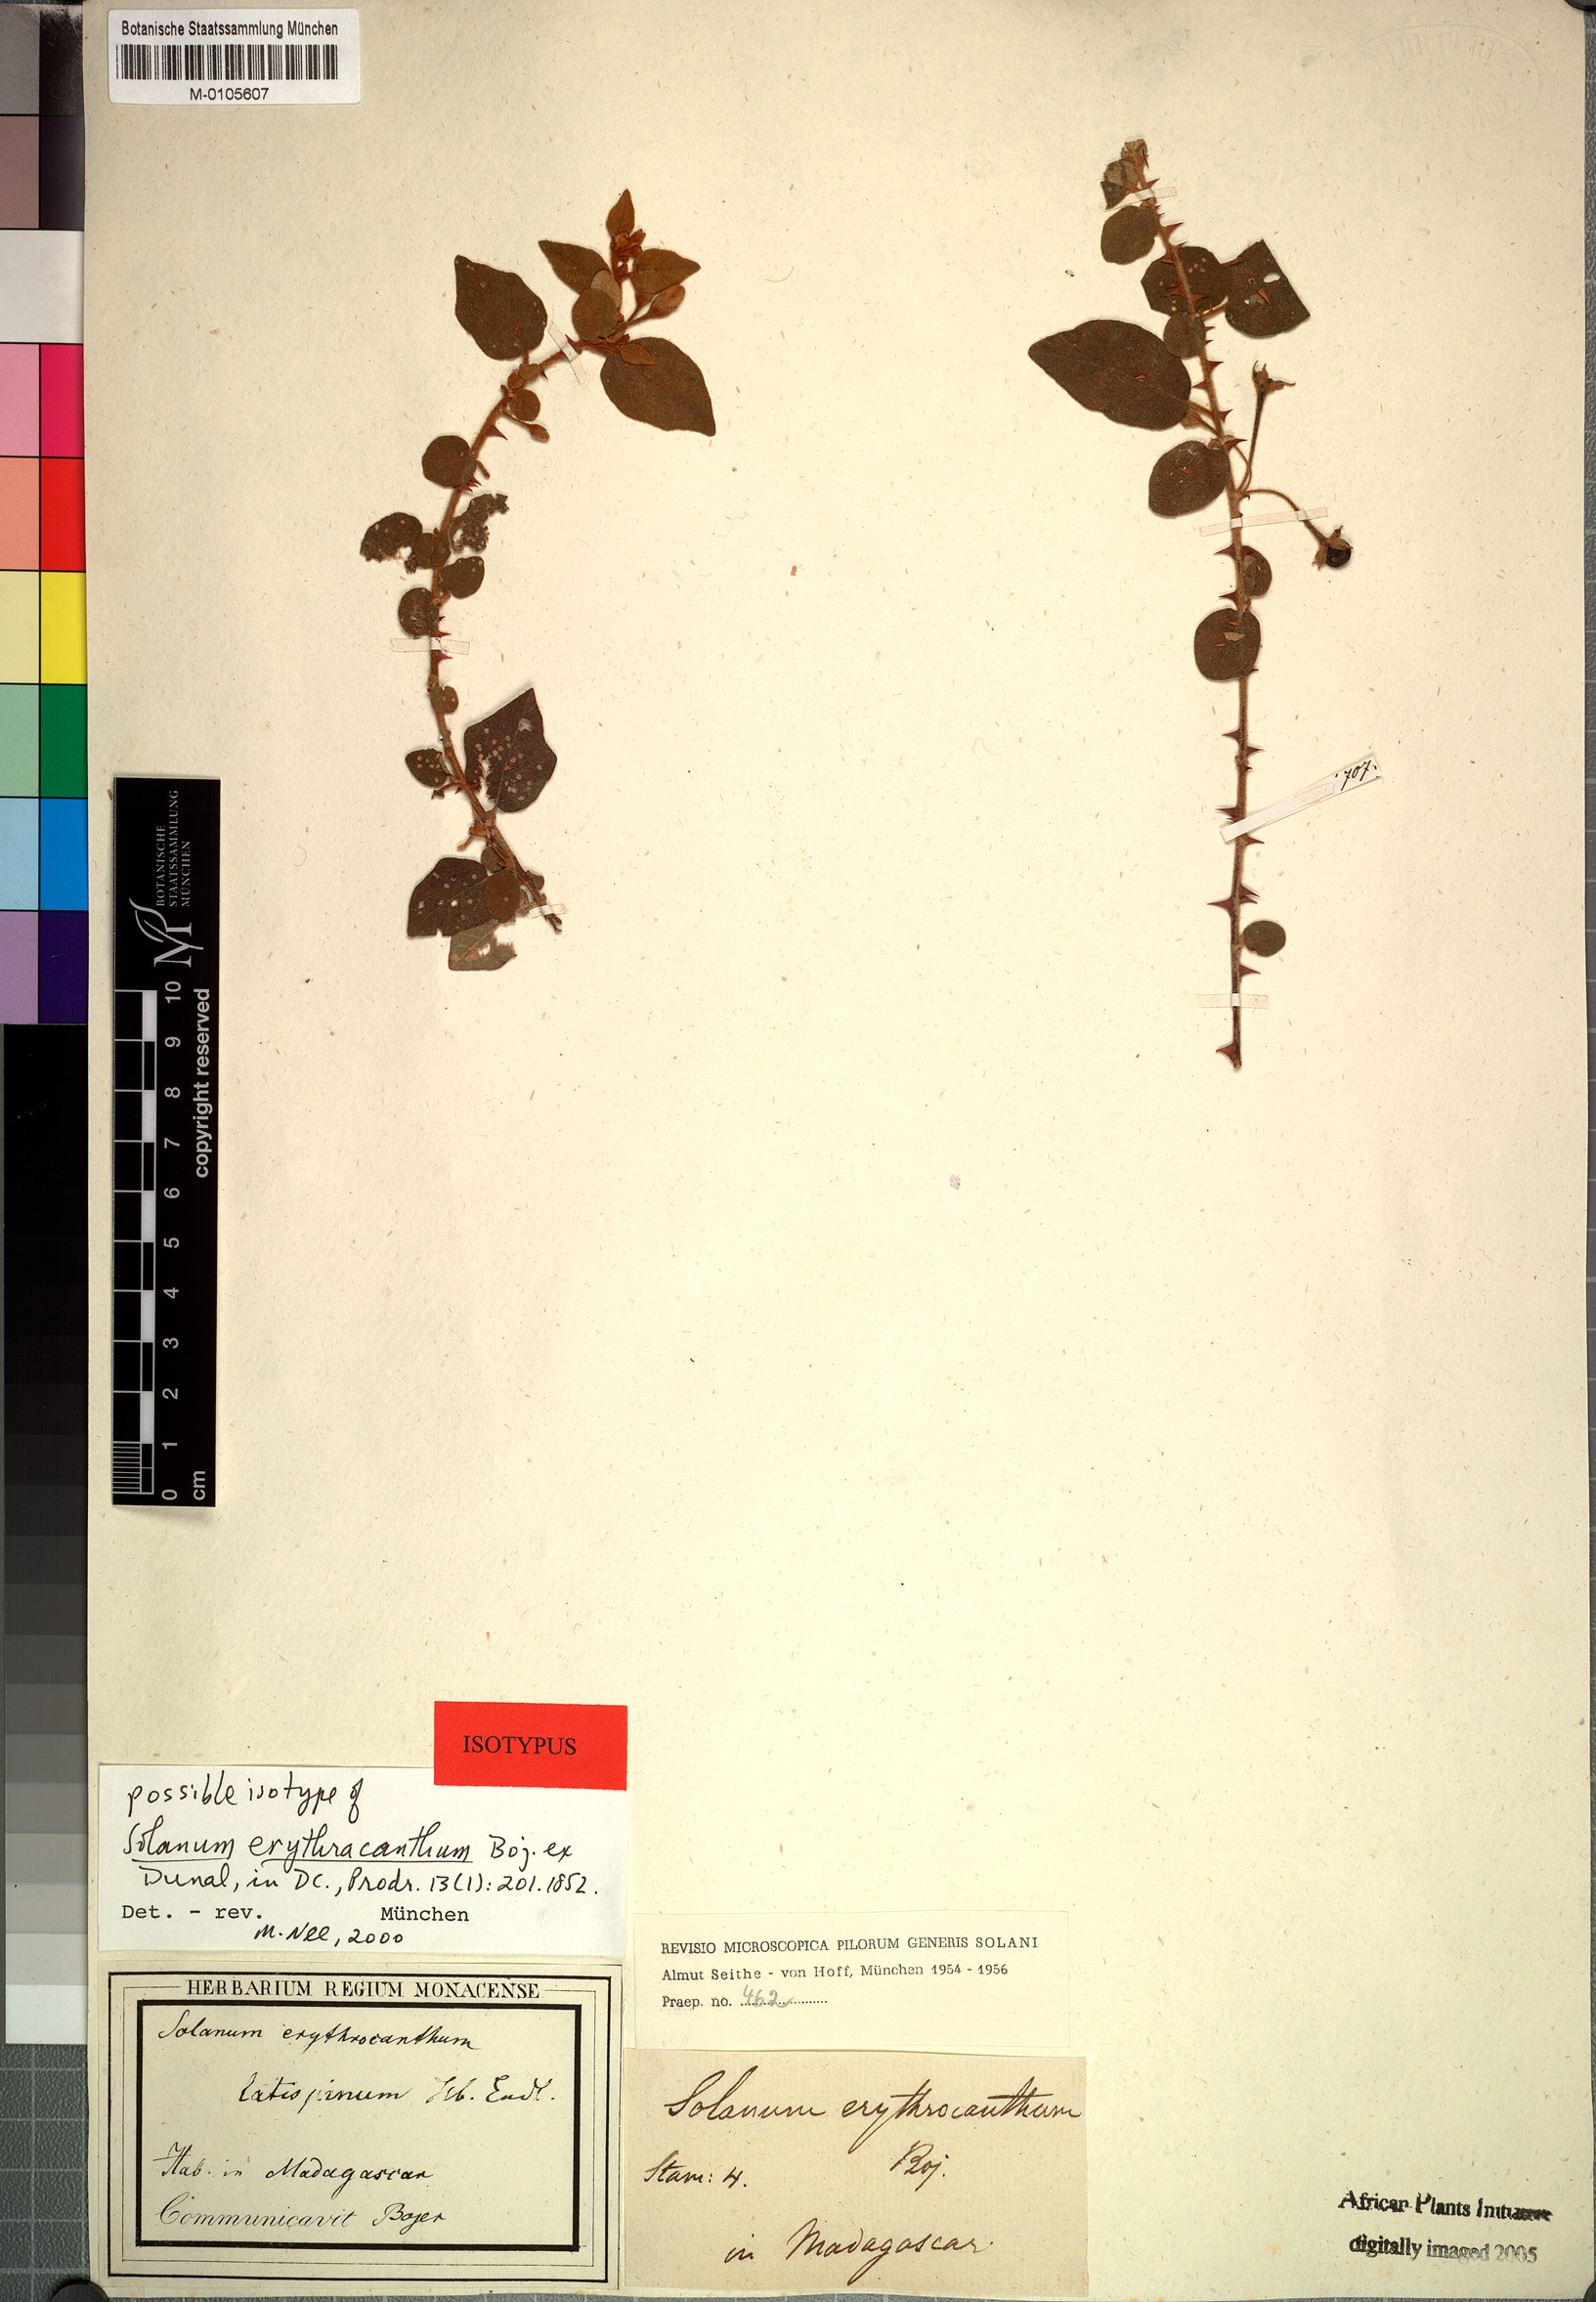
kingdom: Plantae
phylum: Tracheophyta
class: Magnoliopsida
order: Solanales
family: Solanaceae
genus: Solanum
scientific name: Solanum erythracanthum
